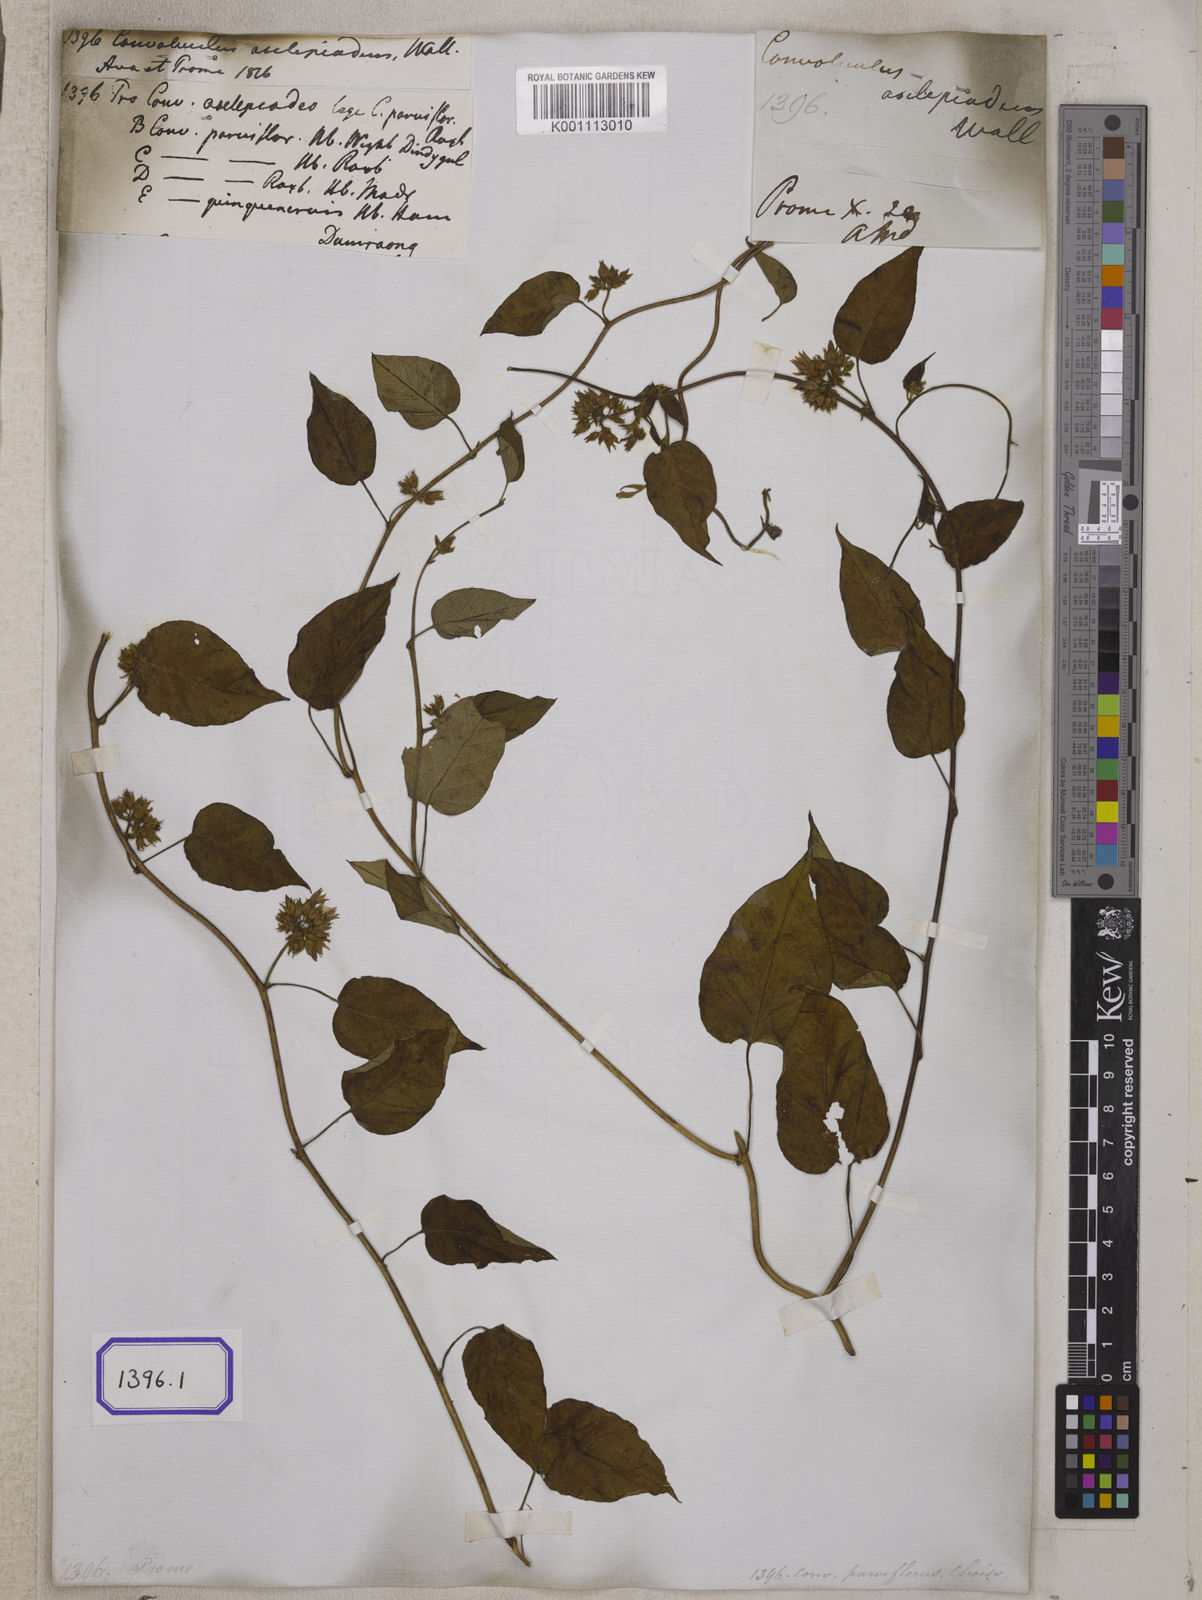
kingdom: Plantae
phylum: Tracheophyta
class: Magnoliopsida
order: Solanales
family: Convolvulaceae
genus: Convolvulus
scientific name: Convolvulus
